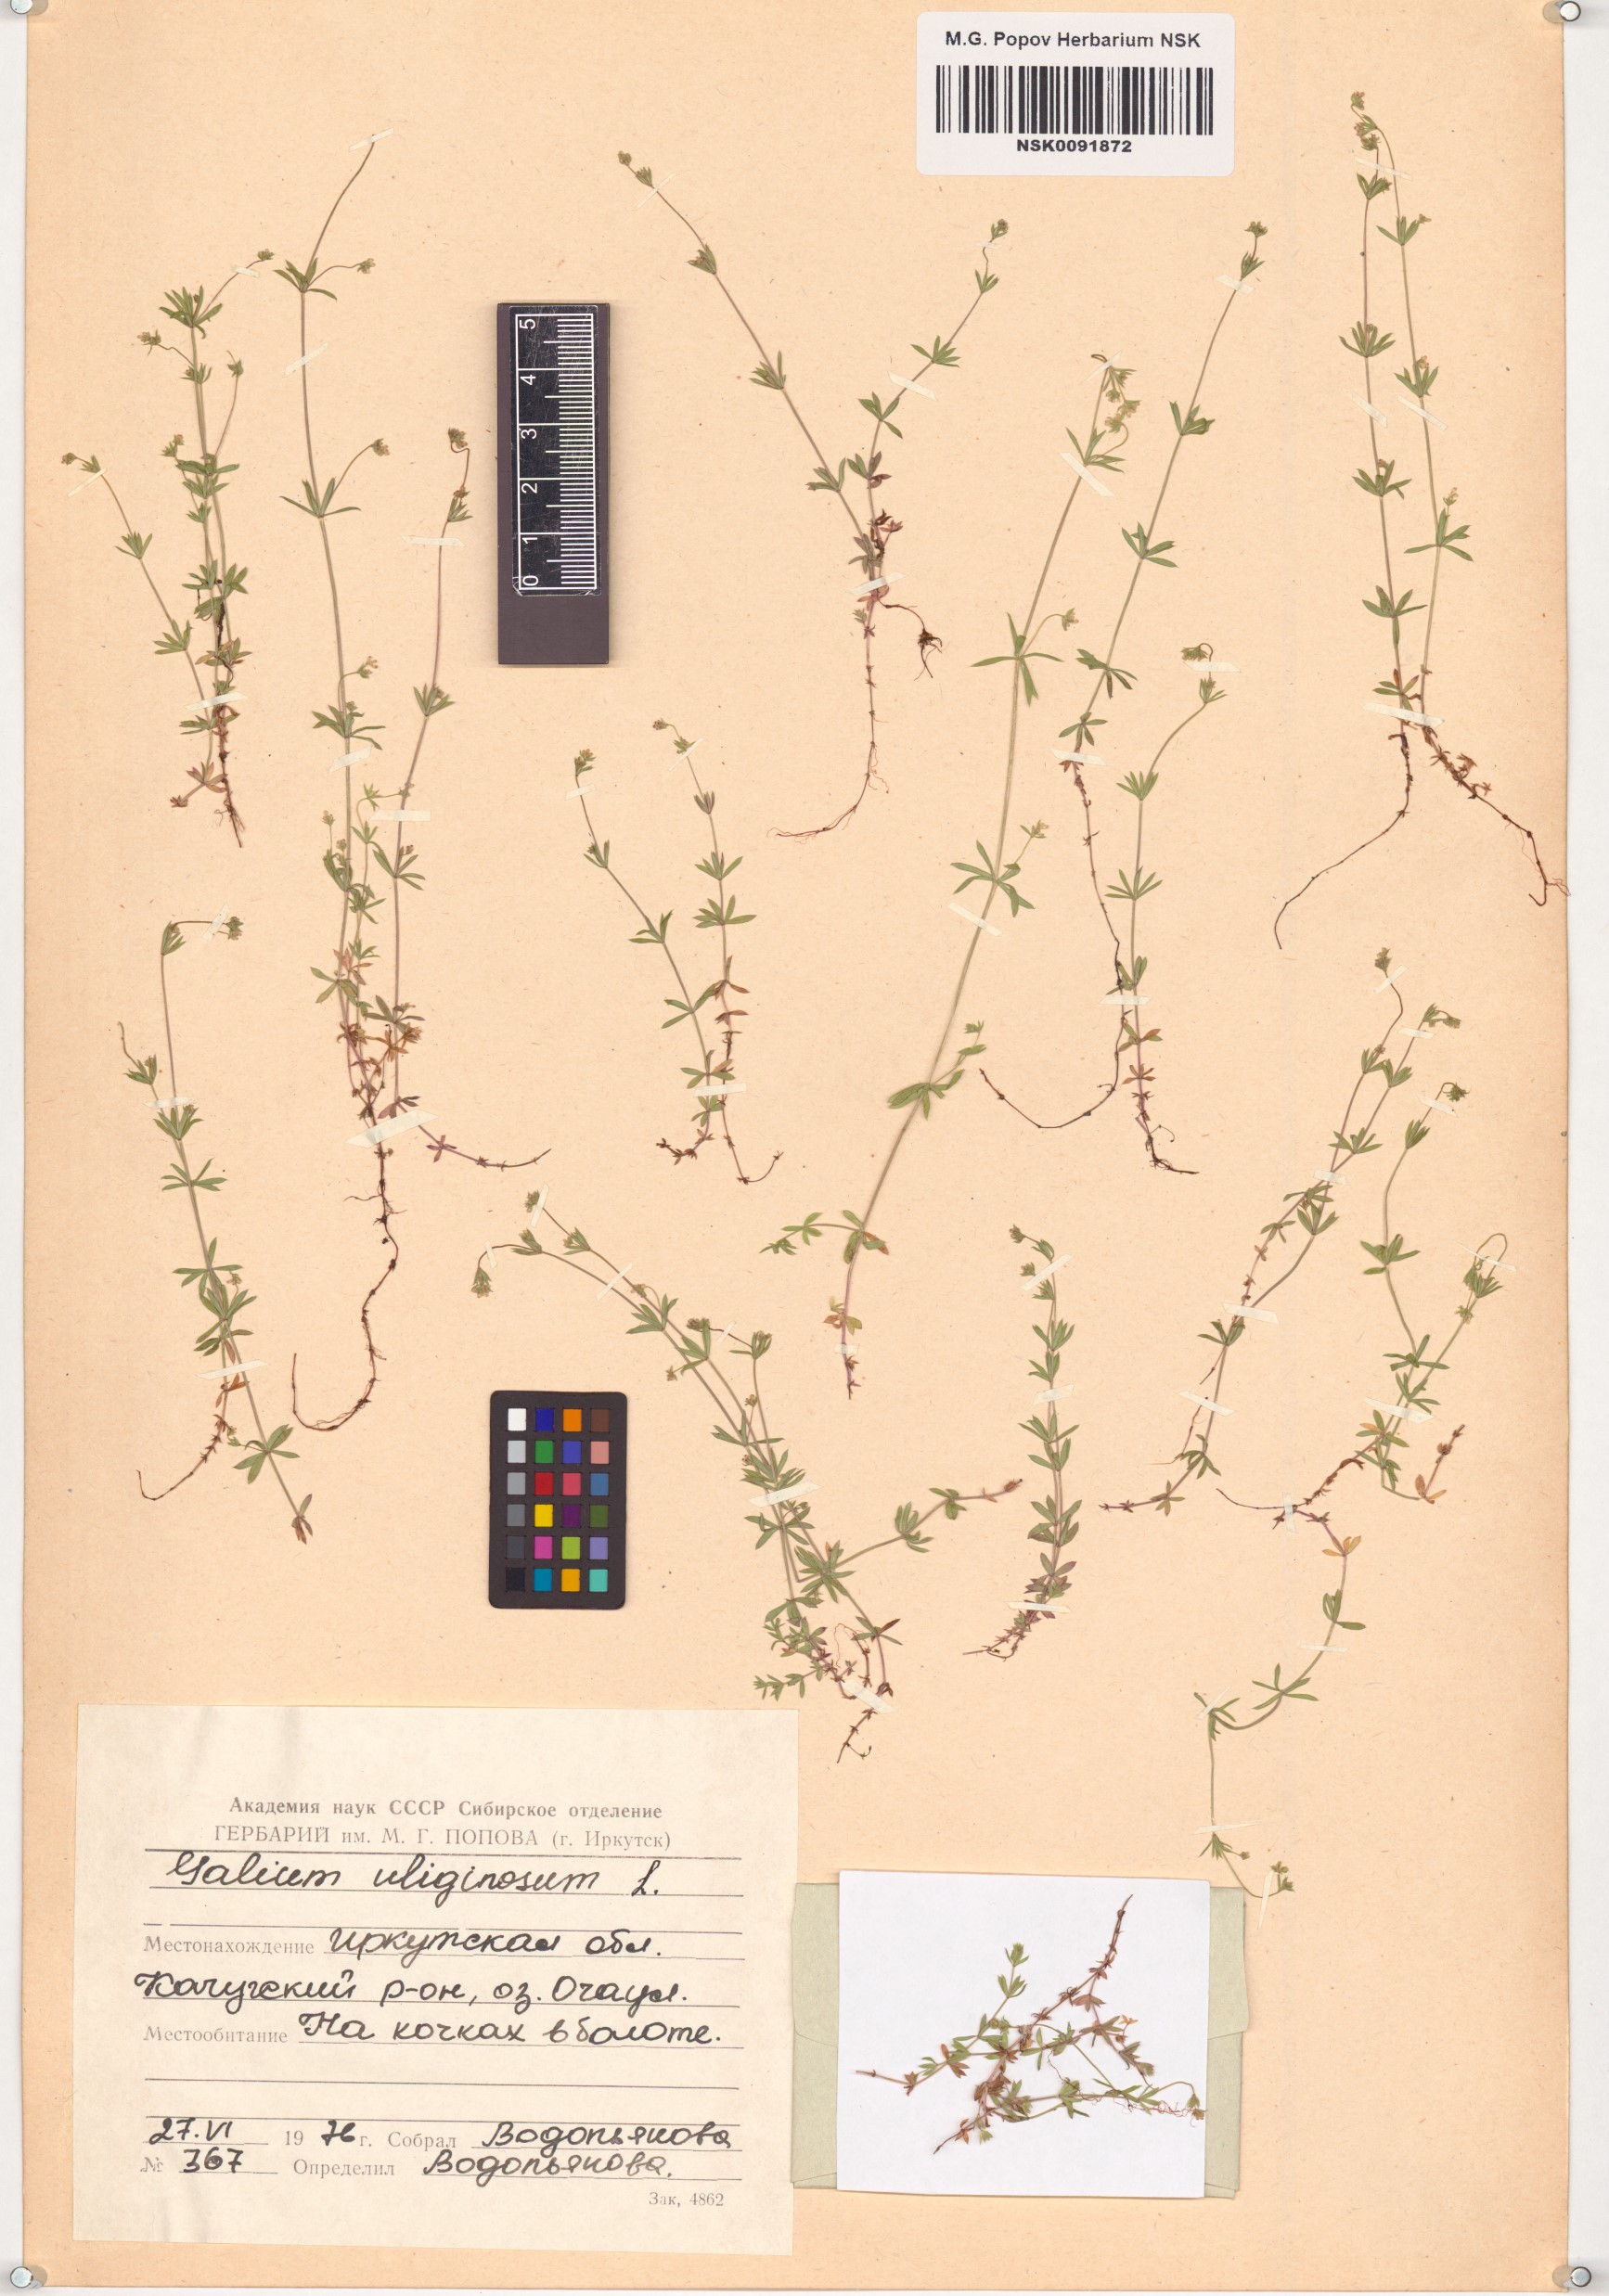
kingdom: Plantae
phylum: Tracheophyta
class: Magnoliopsida
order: Gentianales
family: Rubiaceae
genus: Galium
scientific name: Galium uliginosum
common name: Fen bedstraw
